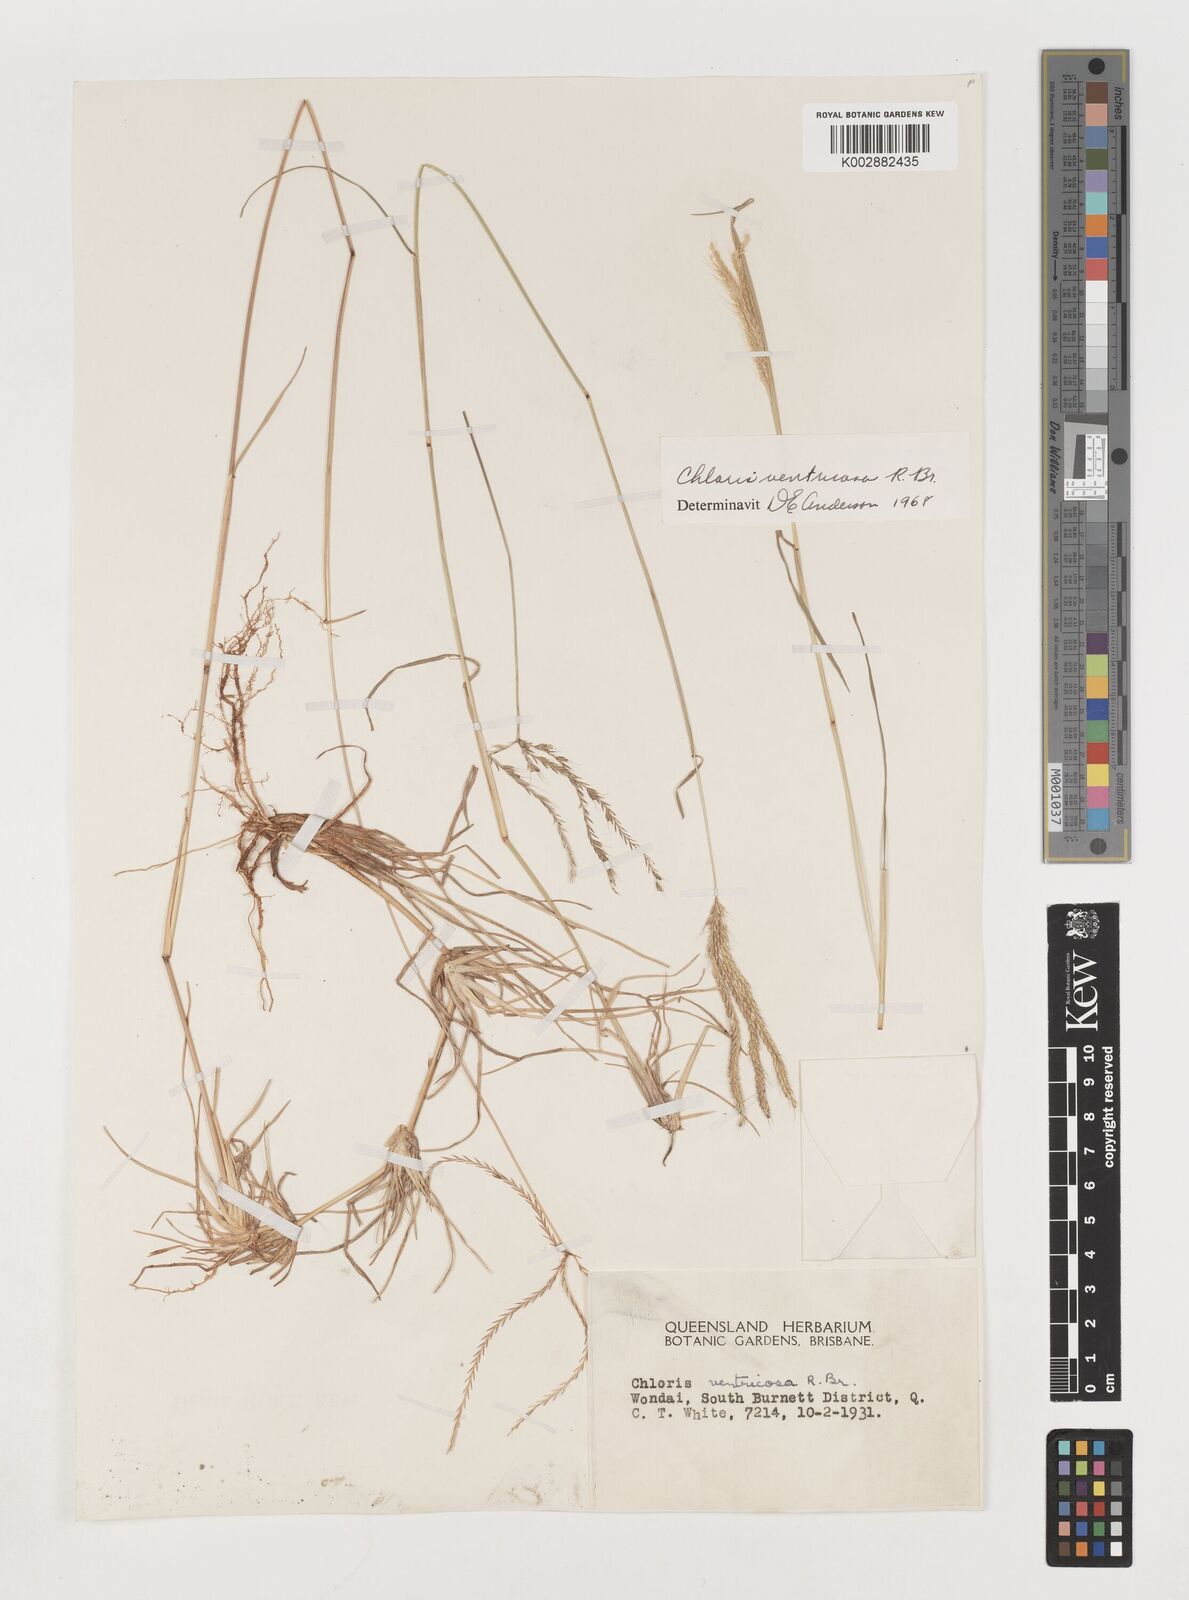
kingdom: Plantae
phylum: Tracheophyta
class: Liliopsida
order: Poales
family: Poaceae
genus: Chloris
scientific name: Chloris ventricosa
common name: Australian windmill grass
